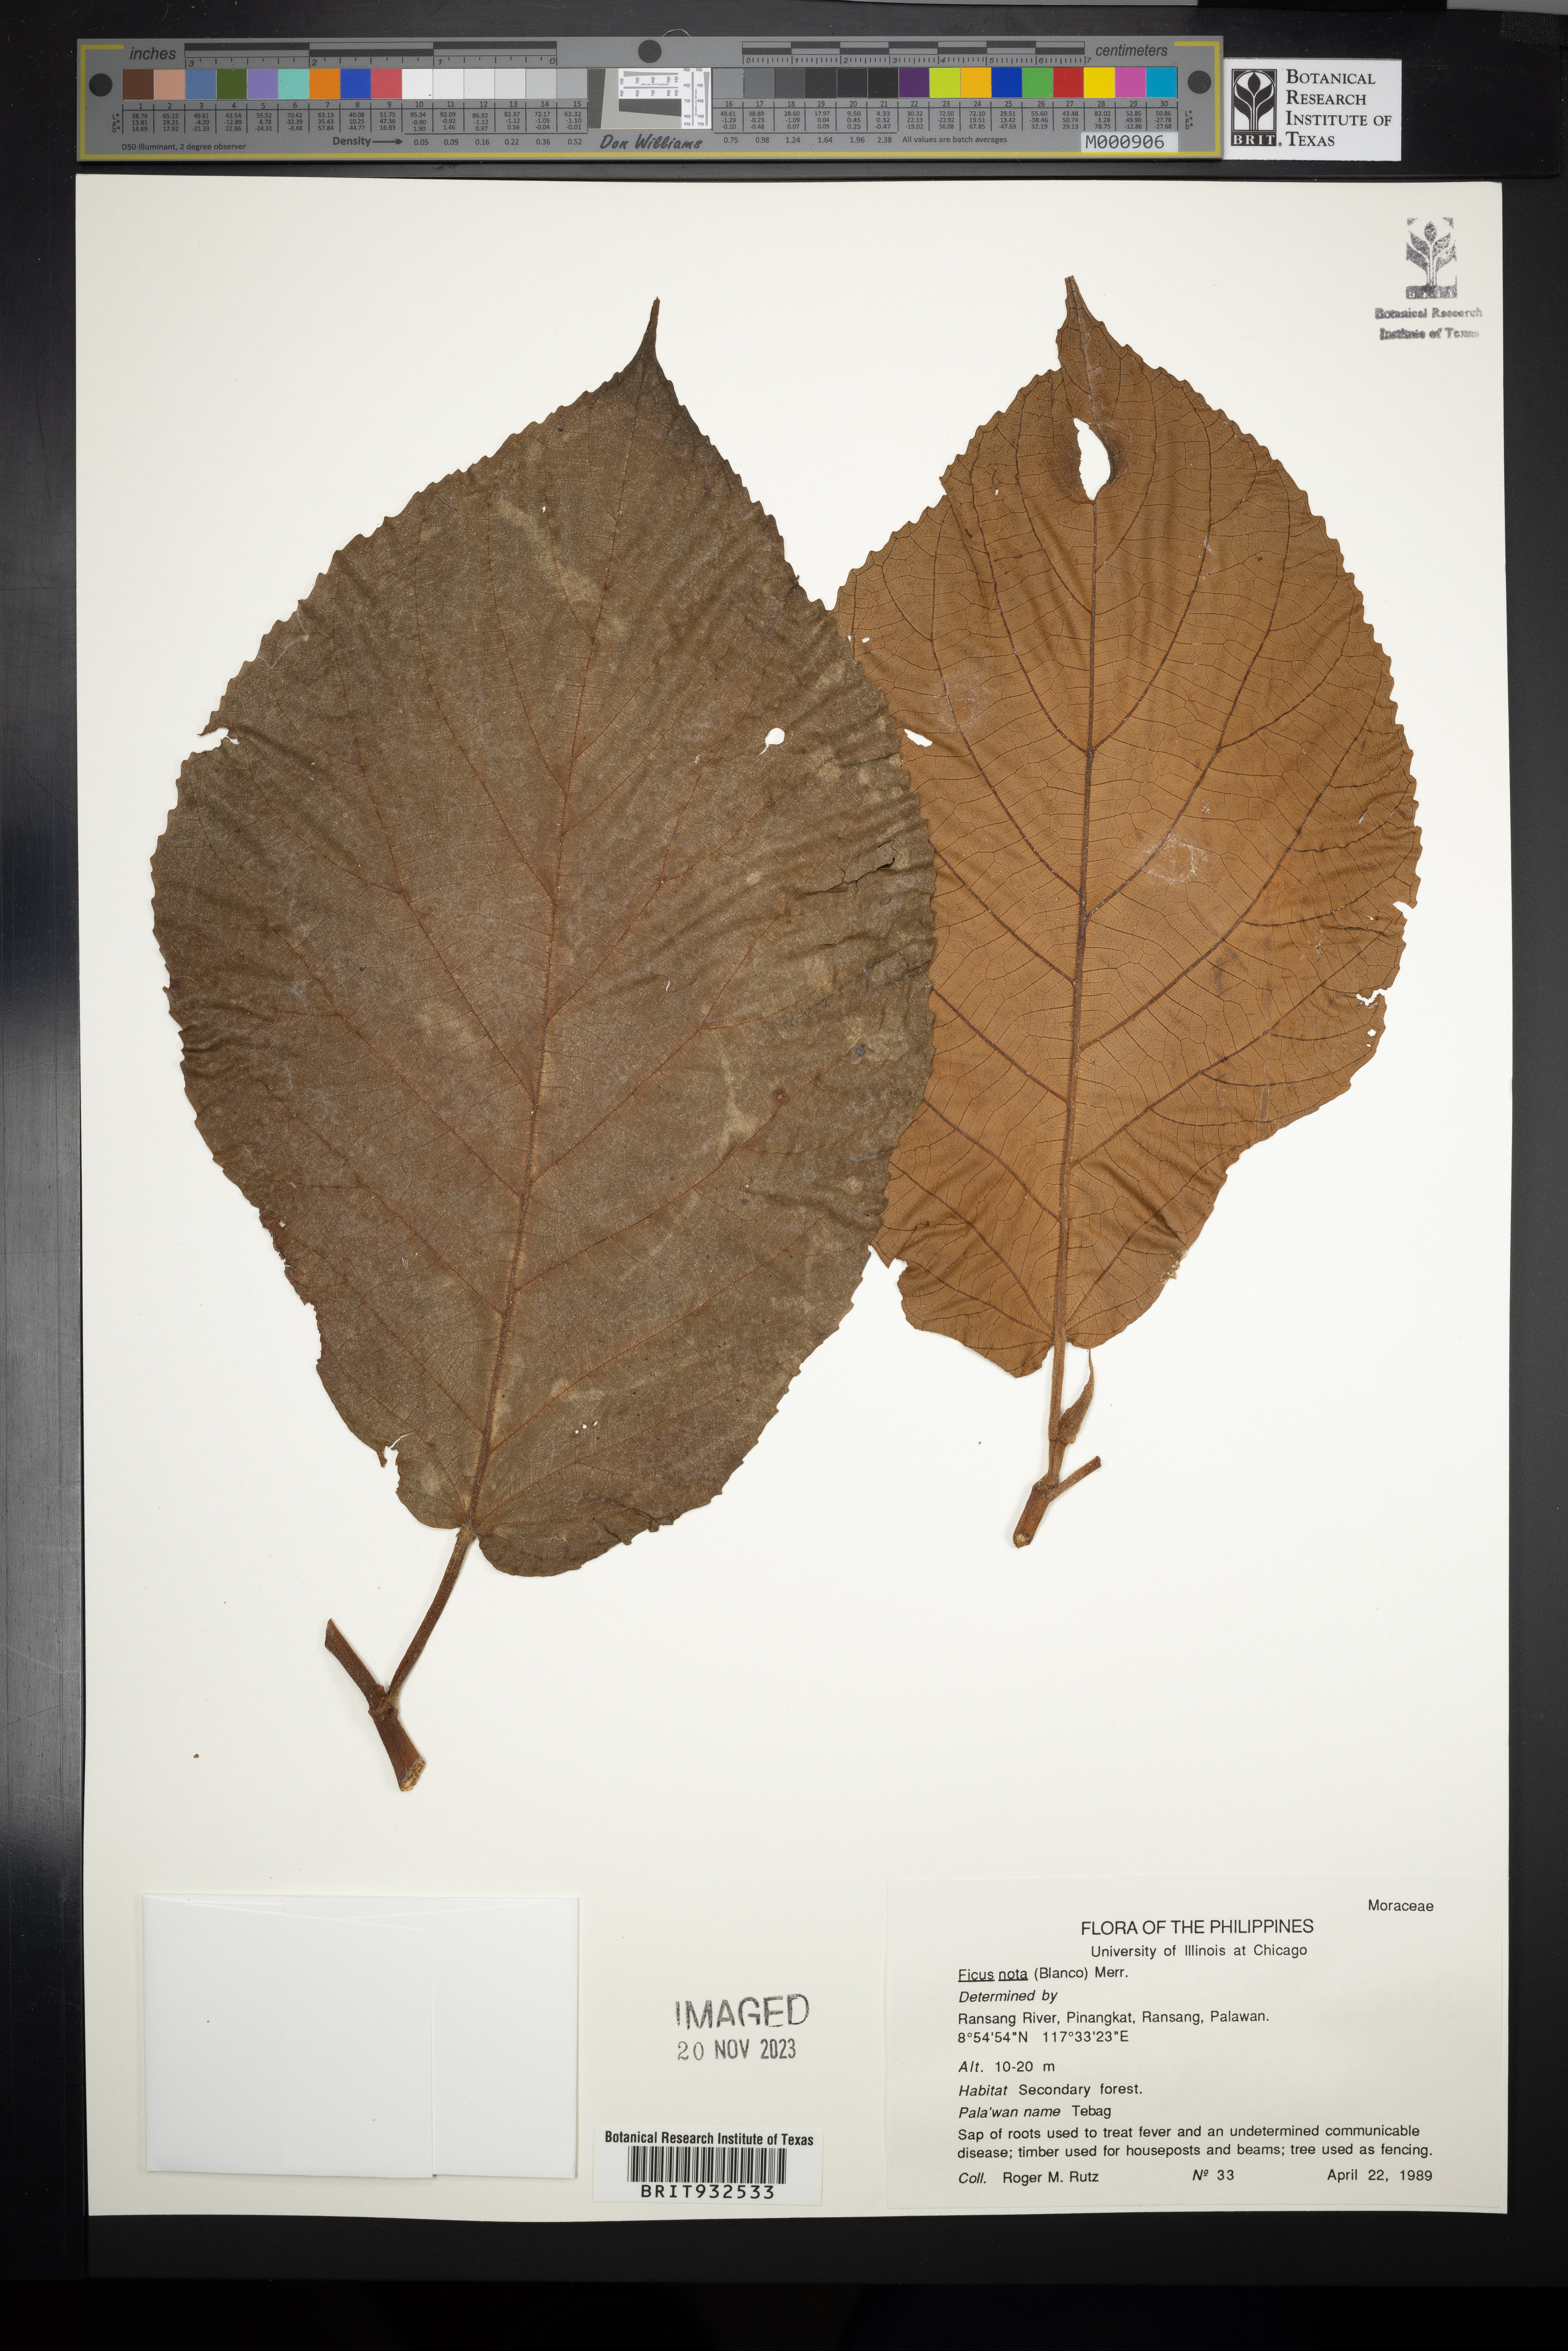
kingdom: Plantae
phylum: Tracheophyta
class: Magnoliopsida
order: Rosales
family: Moraceae
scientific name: Moraceae
